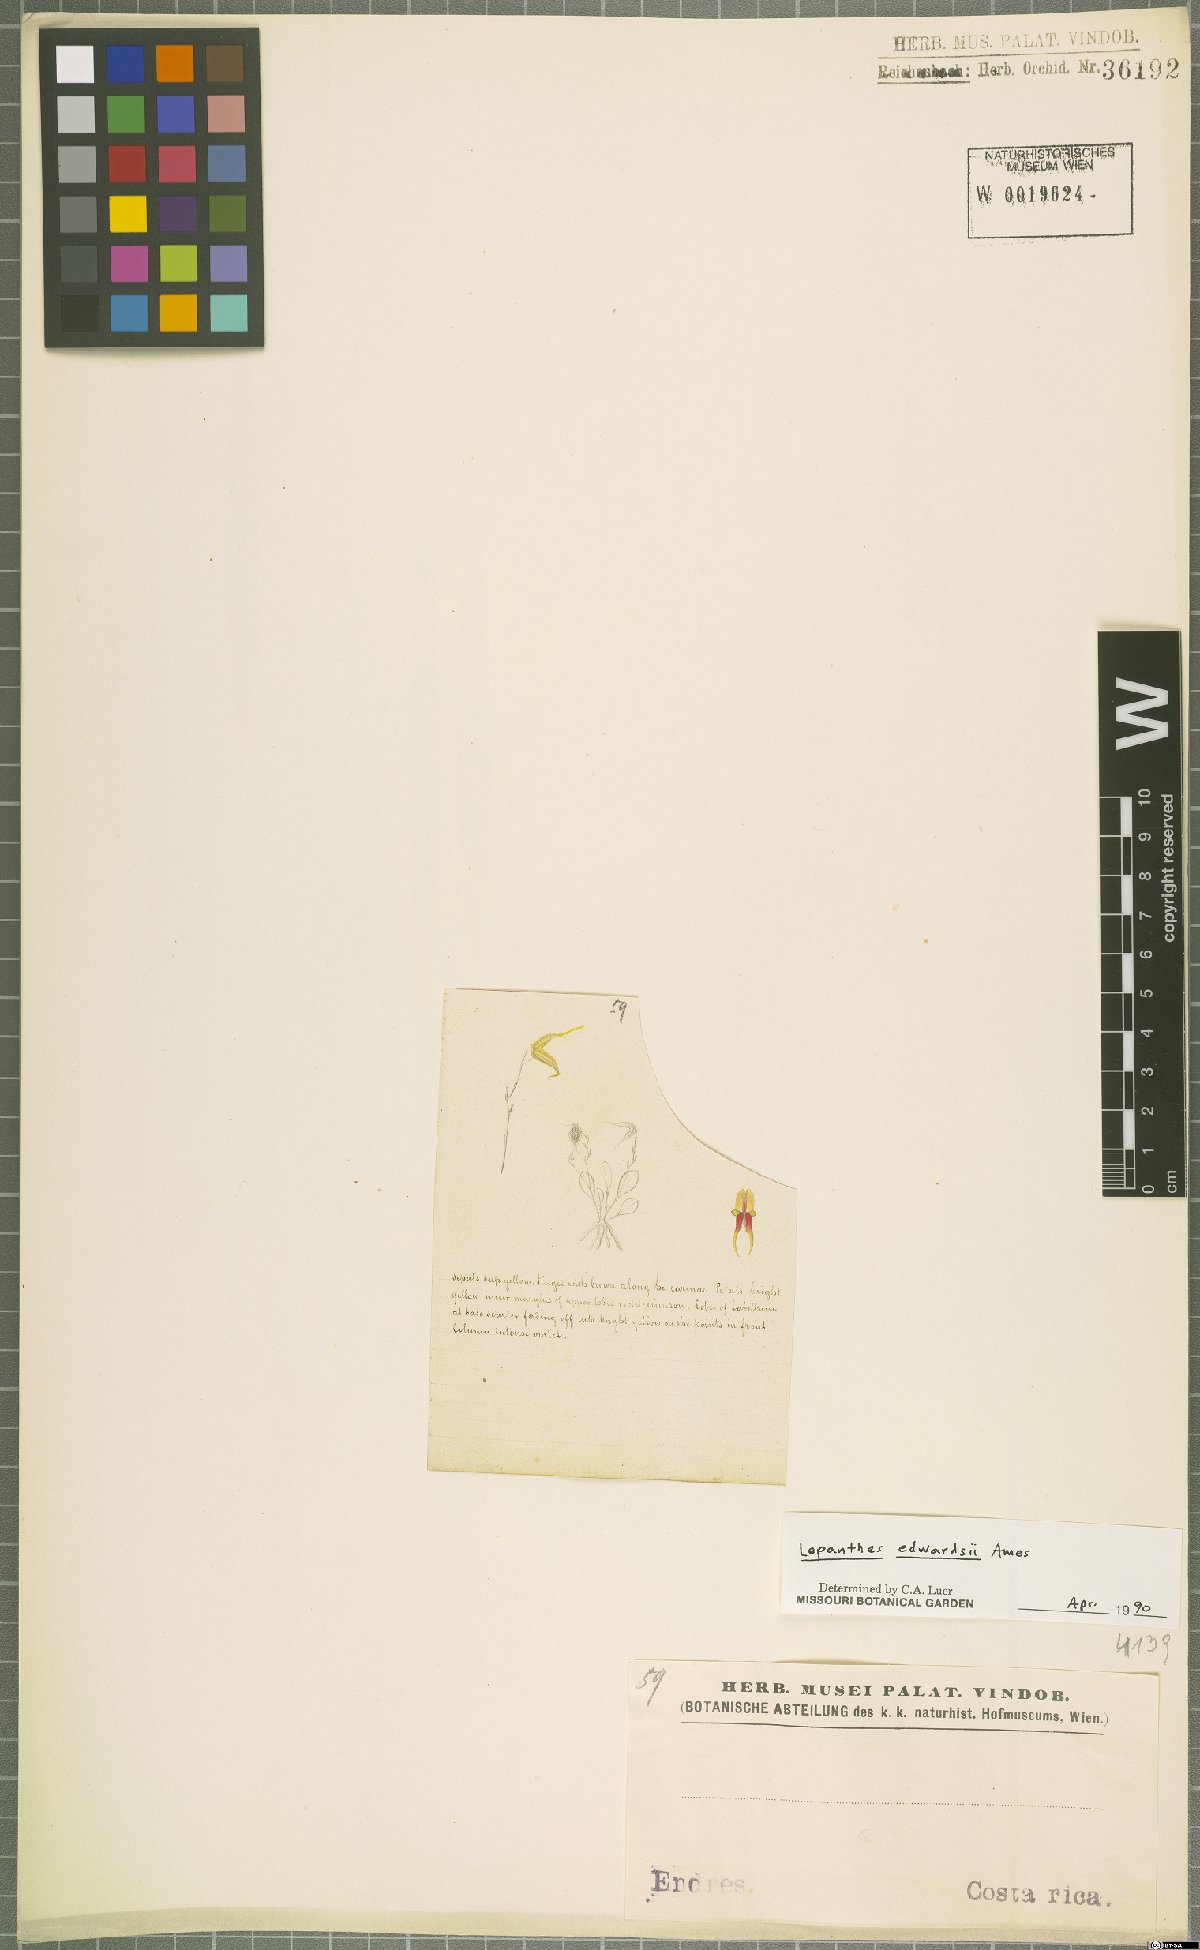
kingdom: Plantae
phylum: Tracheophyta
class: Liliopsida
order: Asparagales
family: Orchidaceae
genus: Lepanthes
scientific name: Lepanthes edwardsii
